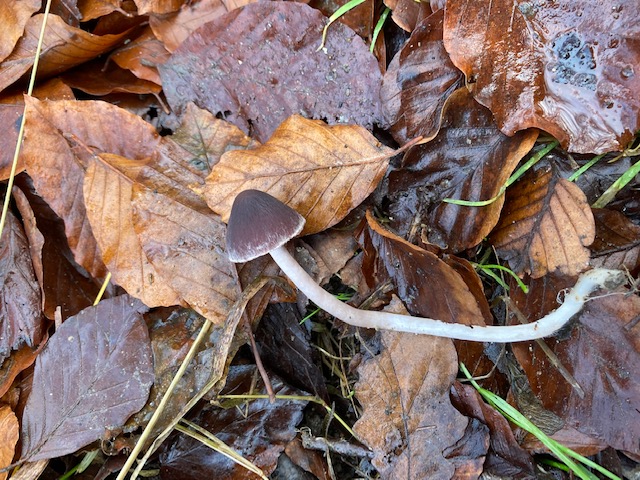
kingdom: Fungi
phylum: Basidiomycota
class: Agaricomycetes
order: Agaricales
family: Psathyrellaceae
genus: Psathyrella
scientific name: Psathyrella bipellis
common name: vinrød mørkhat
